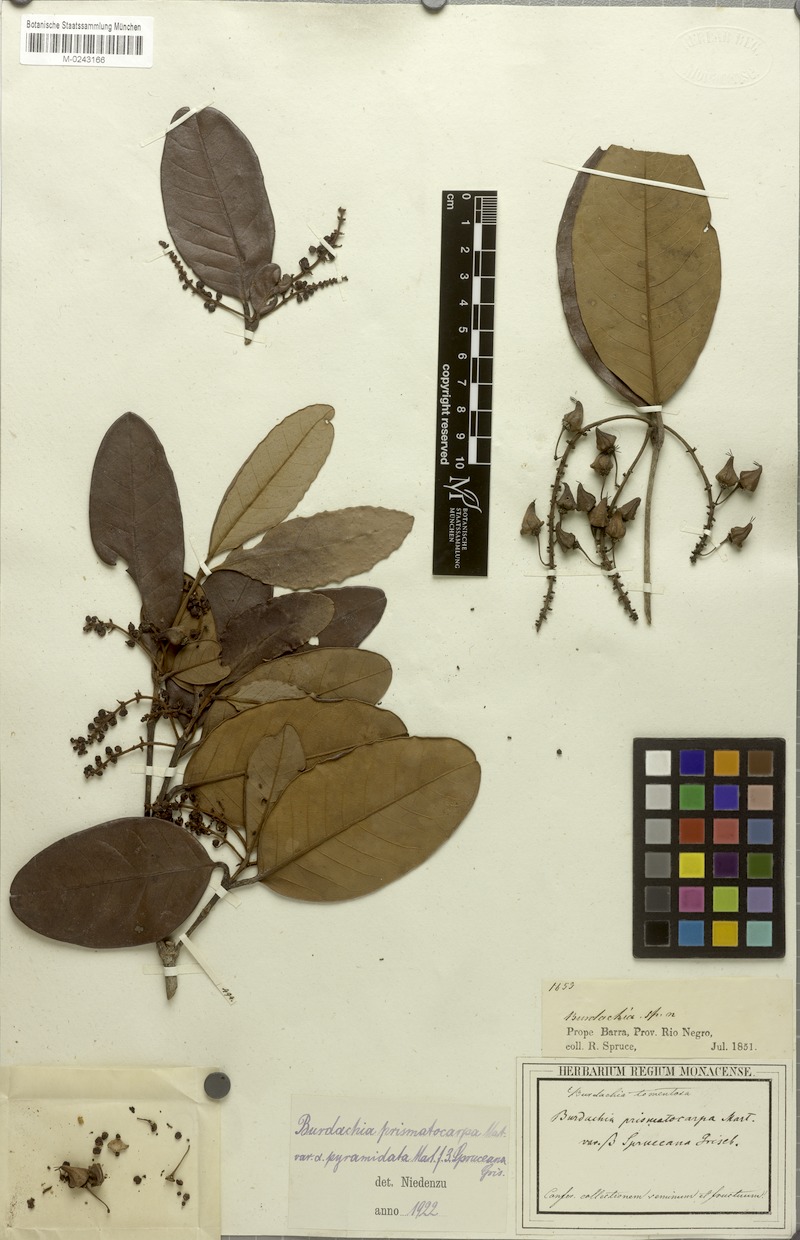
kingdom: Plantae
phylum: Tracheophyta
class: Magnoliopsida
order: Malpighiales
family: Malpighiaceae
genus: Burdachia
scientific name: Burdachia duckei
